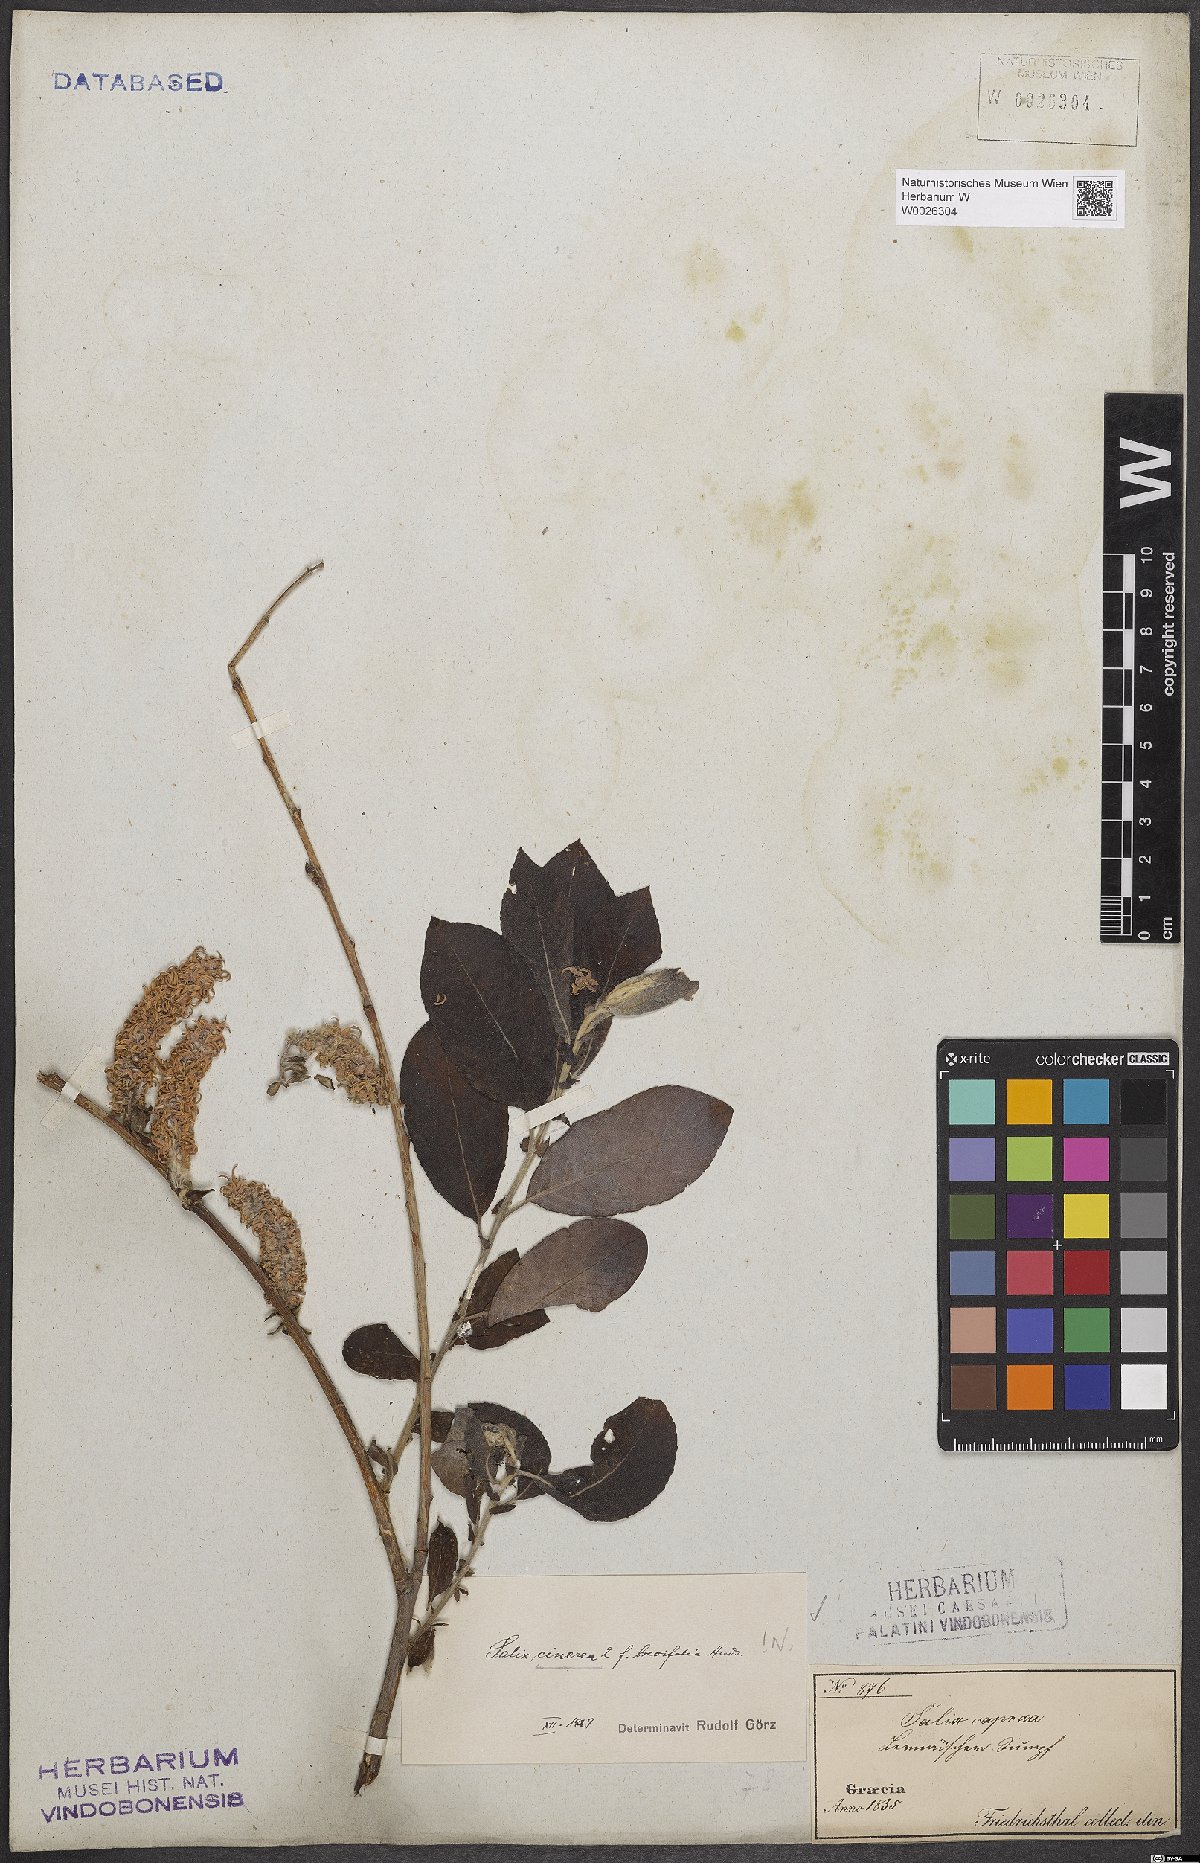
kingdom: Plantae
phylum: Tracheophyta
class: Magnoliopsida
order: Malpighiales
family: Salicaceae
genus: Salix
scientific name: Salix cinerea
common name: Common sallow
